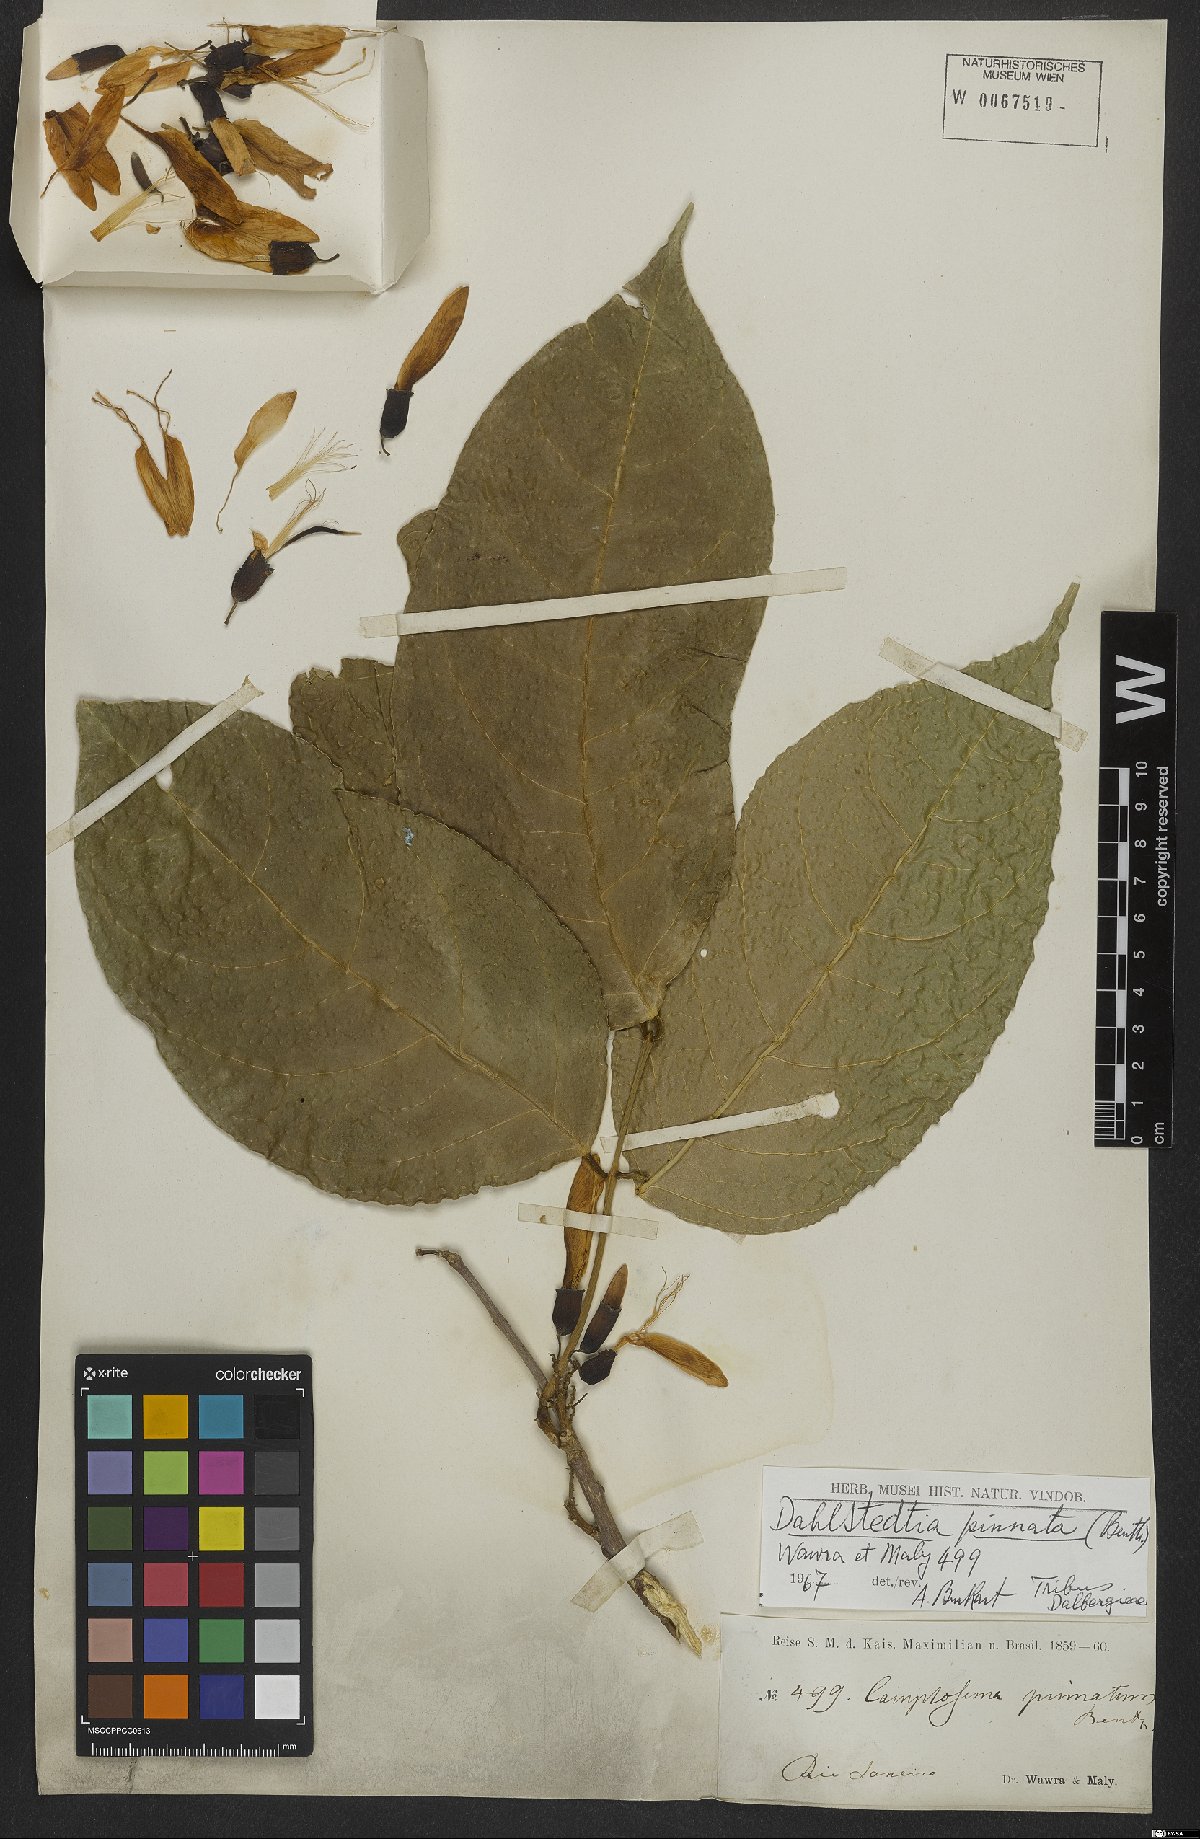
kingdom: Plantae
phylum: Tracheophyta
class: Magnoliopsida
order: Fabales
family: Fabaceae
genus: Dahlstedtia
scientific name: Dahlstedtia pinnata
